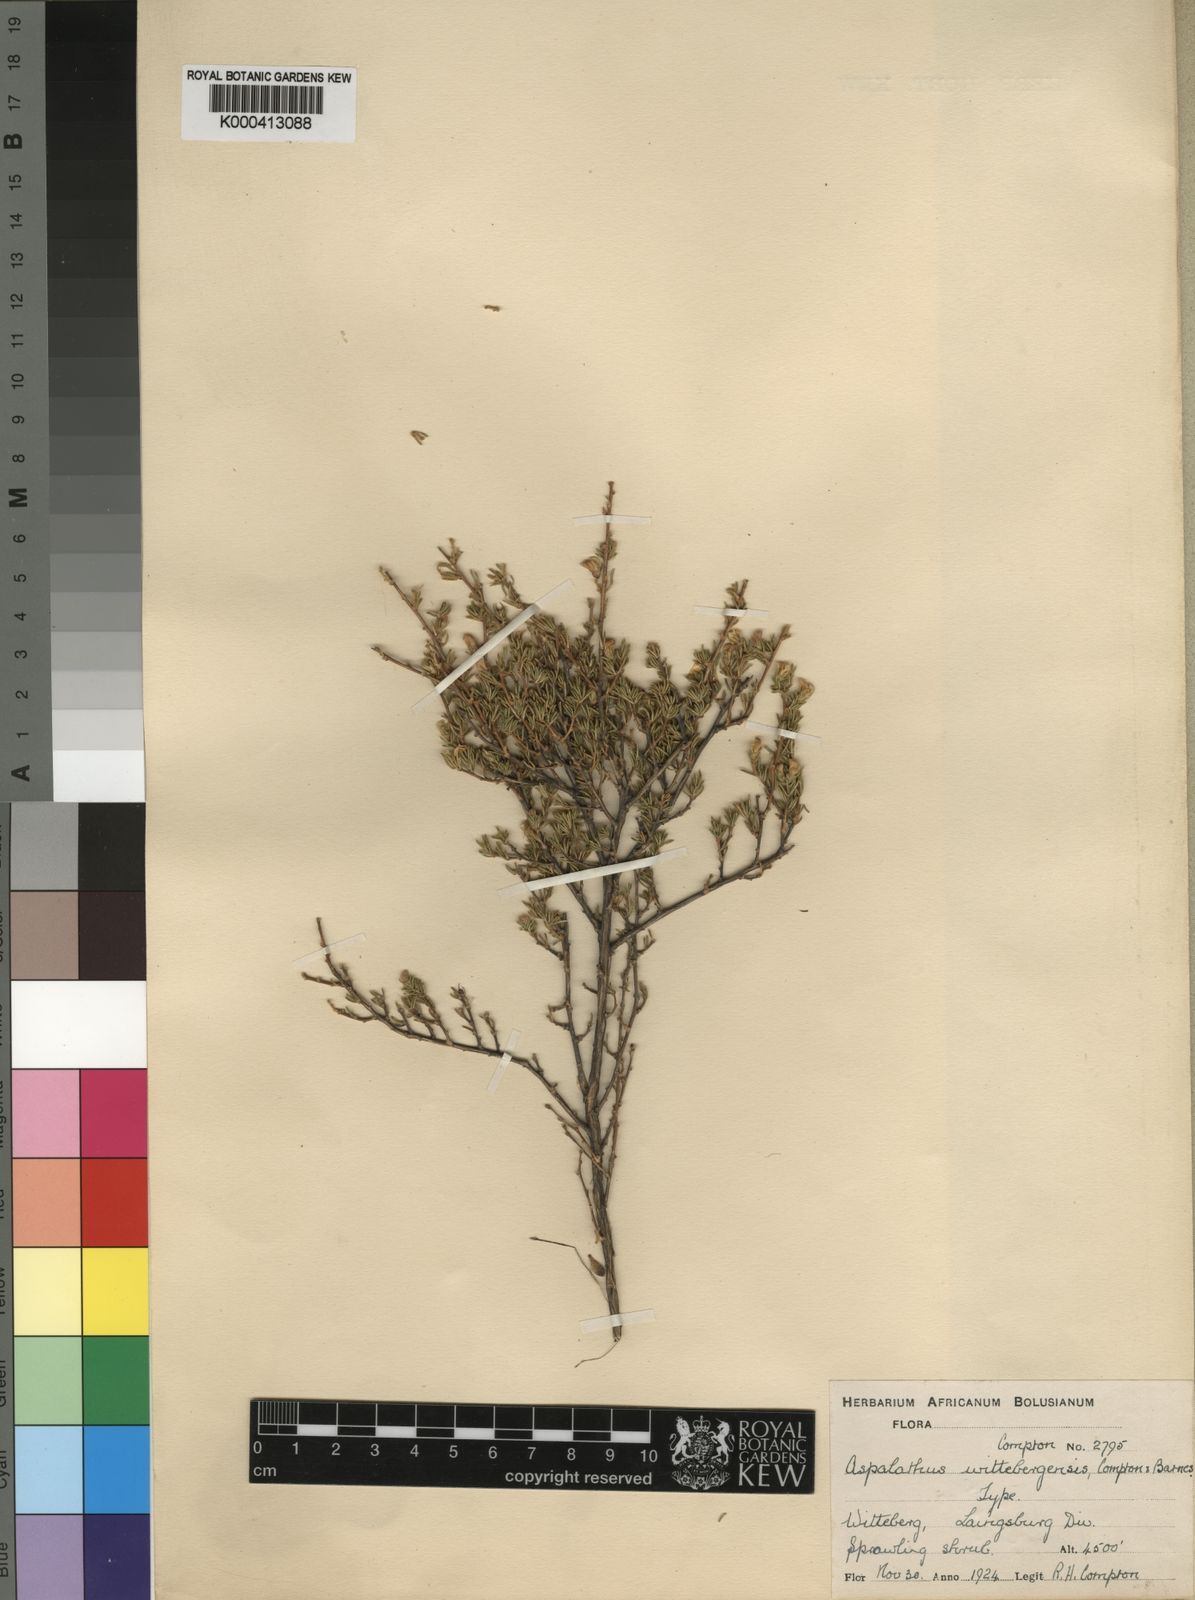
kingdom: Plantae
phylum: Tracheophyta
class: Magnoliopsida
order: Fabales
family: Fabaceae
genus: Aspalathus
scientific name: Aspalathus wittebergensis
